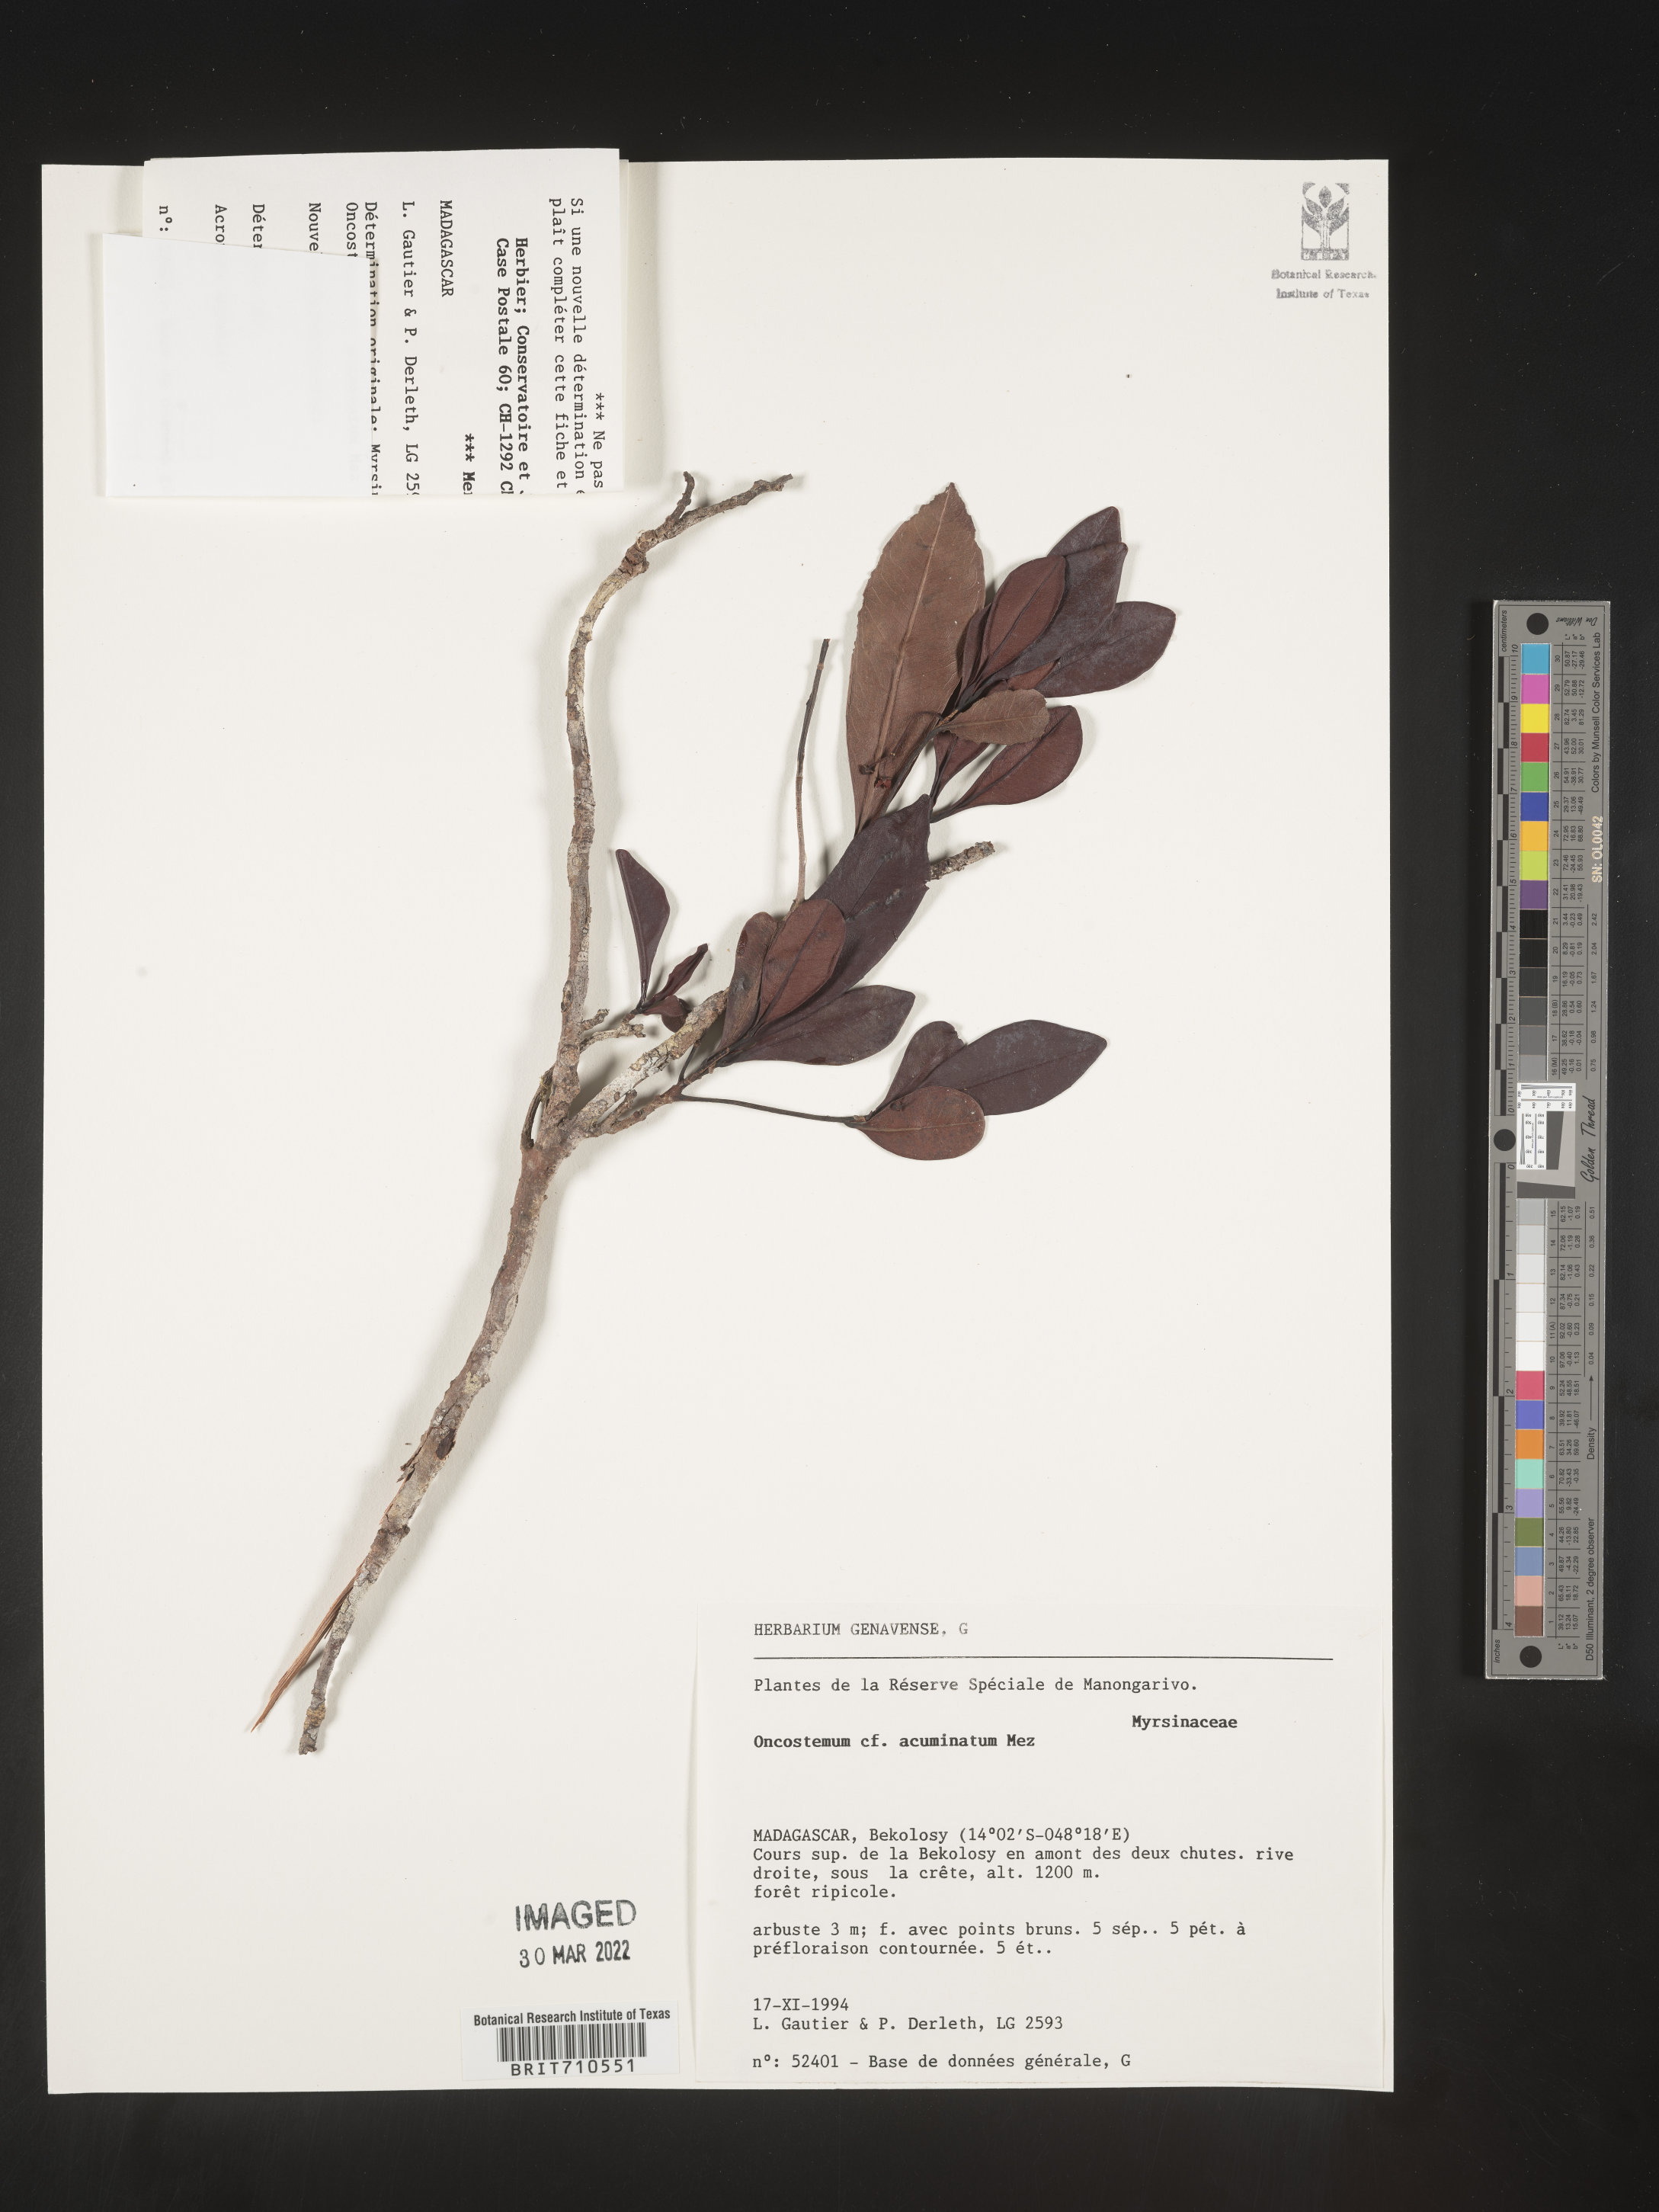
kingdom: Plantae
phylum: Tracheophyta
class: Magnoliopsida
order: Ericales
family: Primulaceae
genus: Oncostemum
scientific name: Oncostemum
